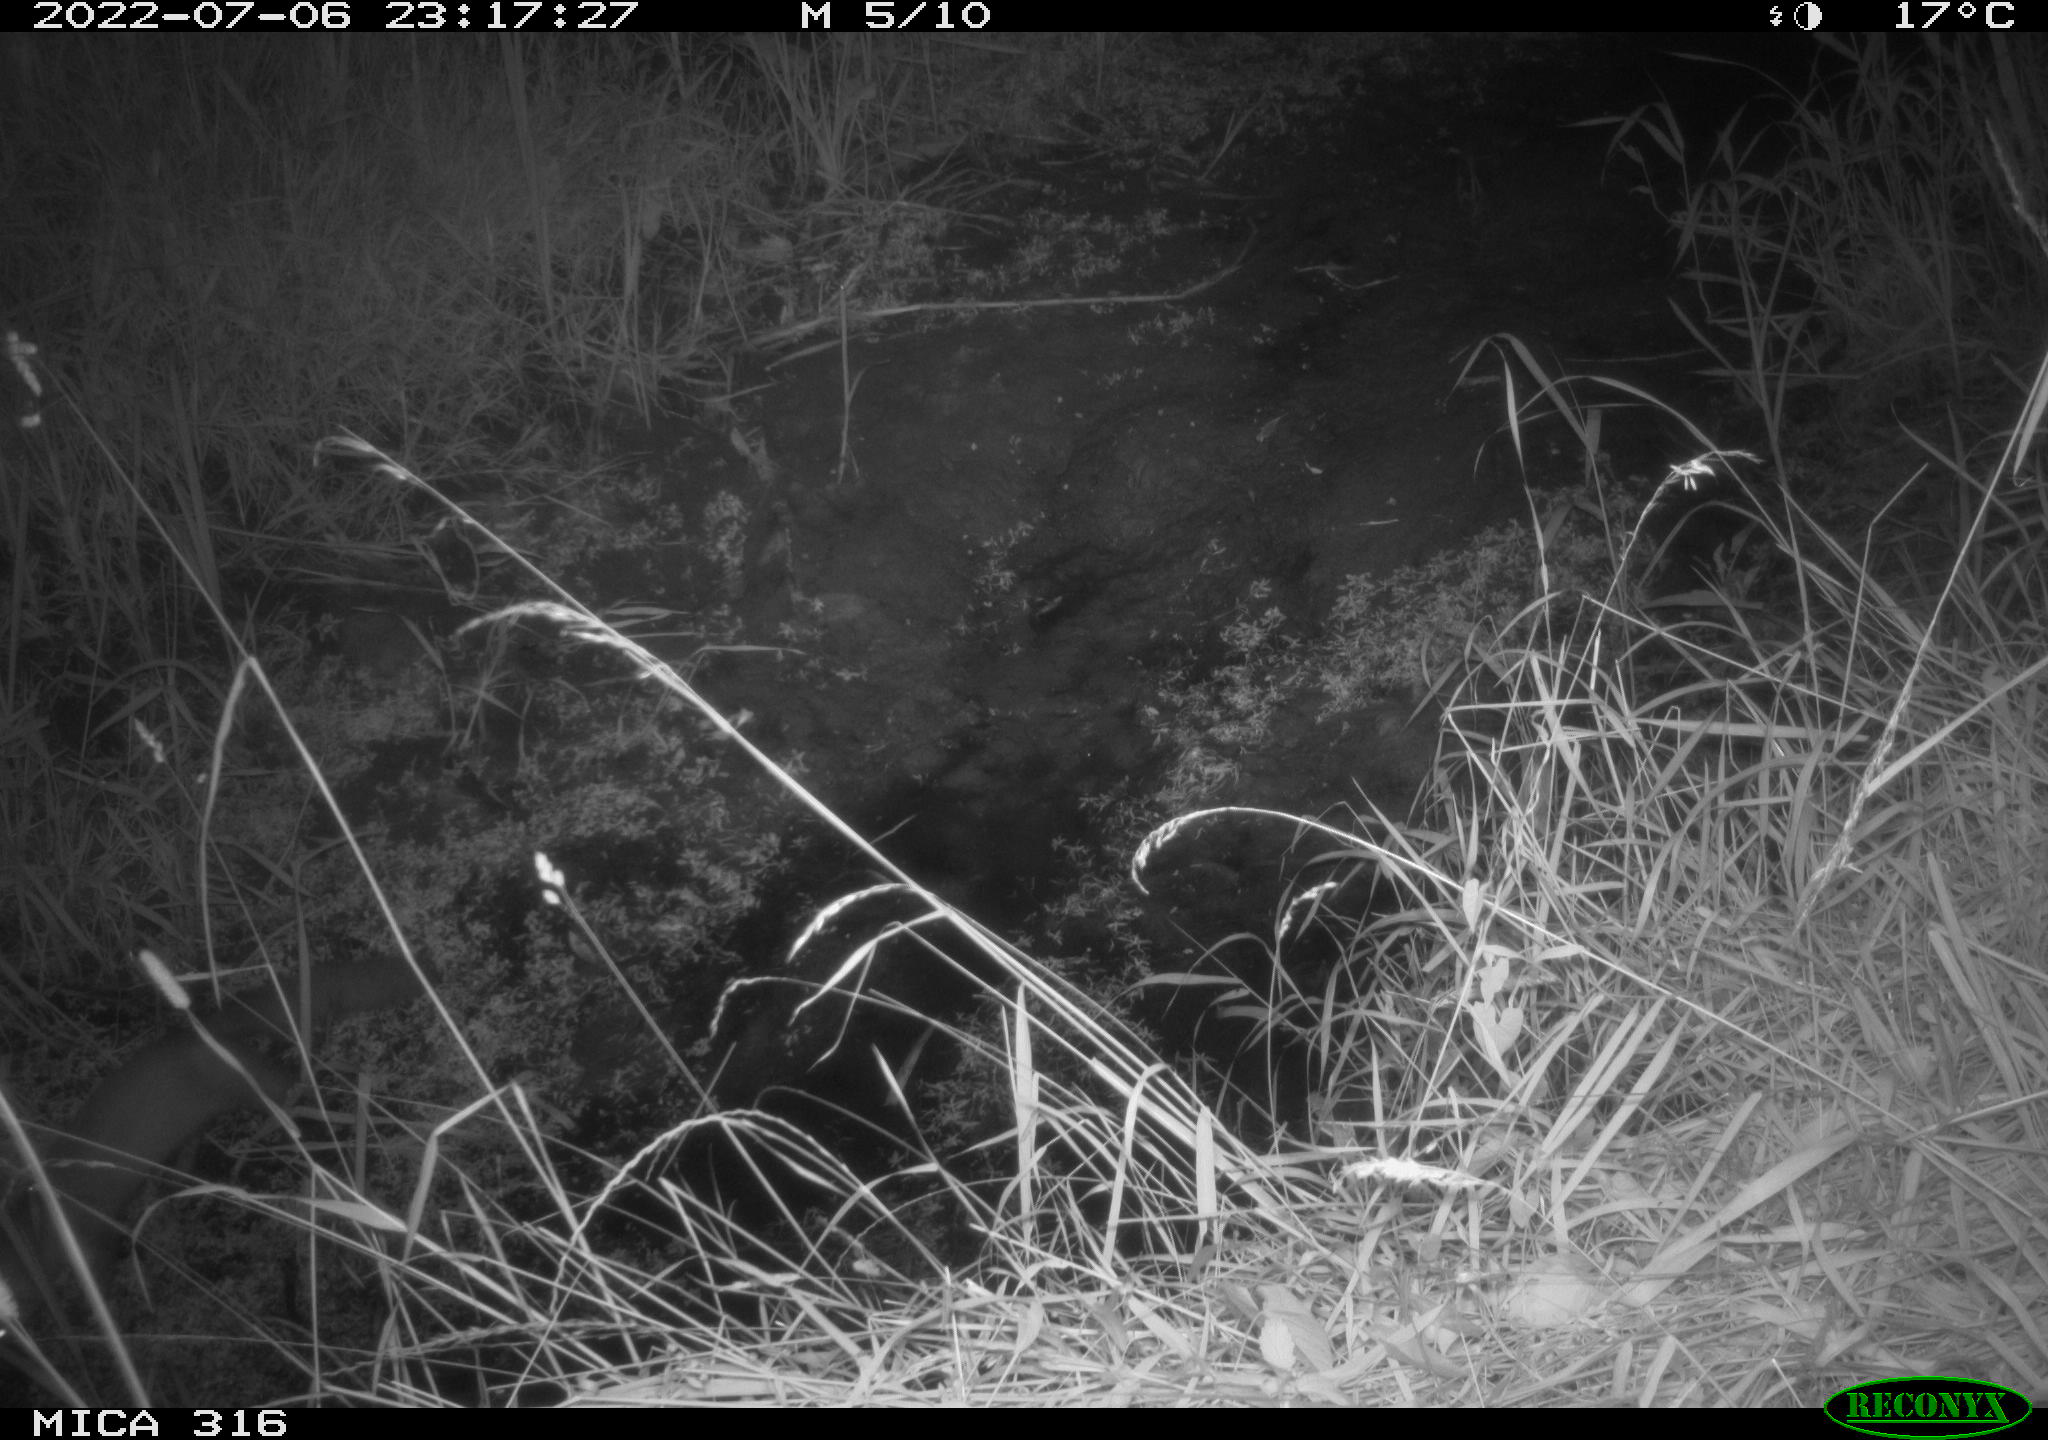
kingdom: Animalia
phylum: Chordata
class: Mammalia
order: Carnivora
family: Mustelidae
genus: Martes
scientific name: Martes foina
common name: Beech marten
